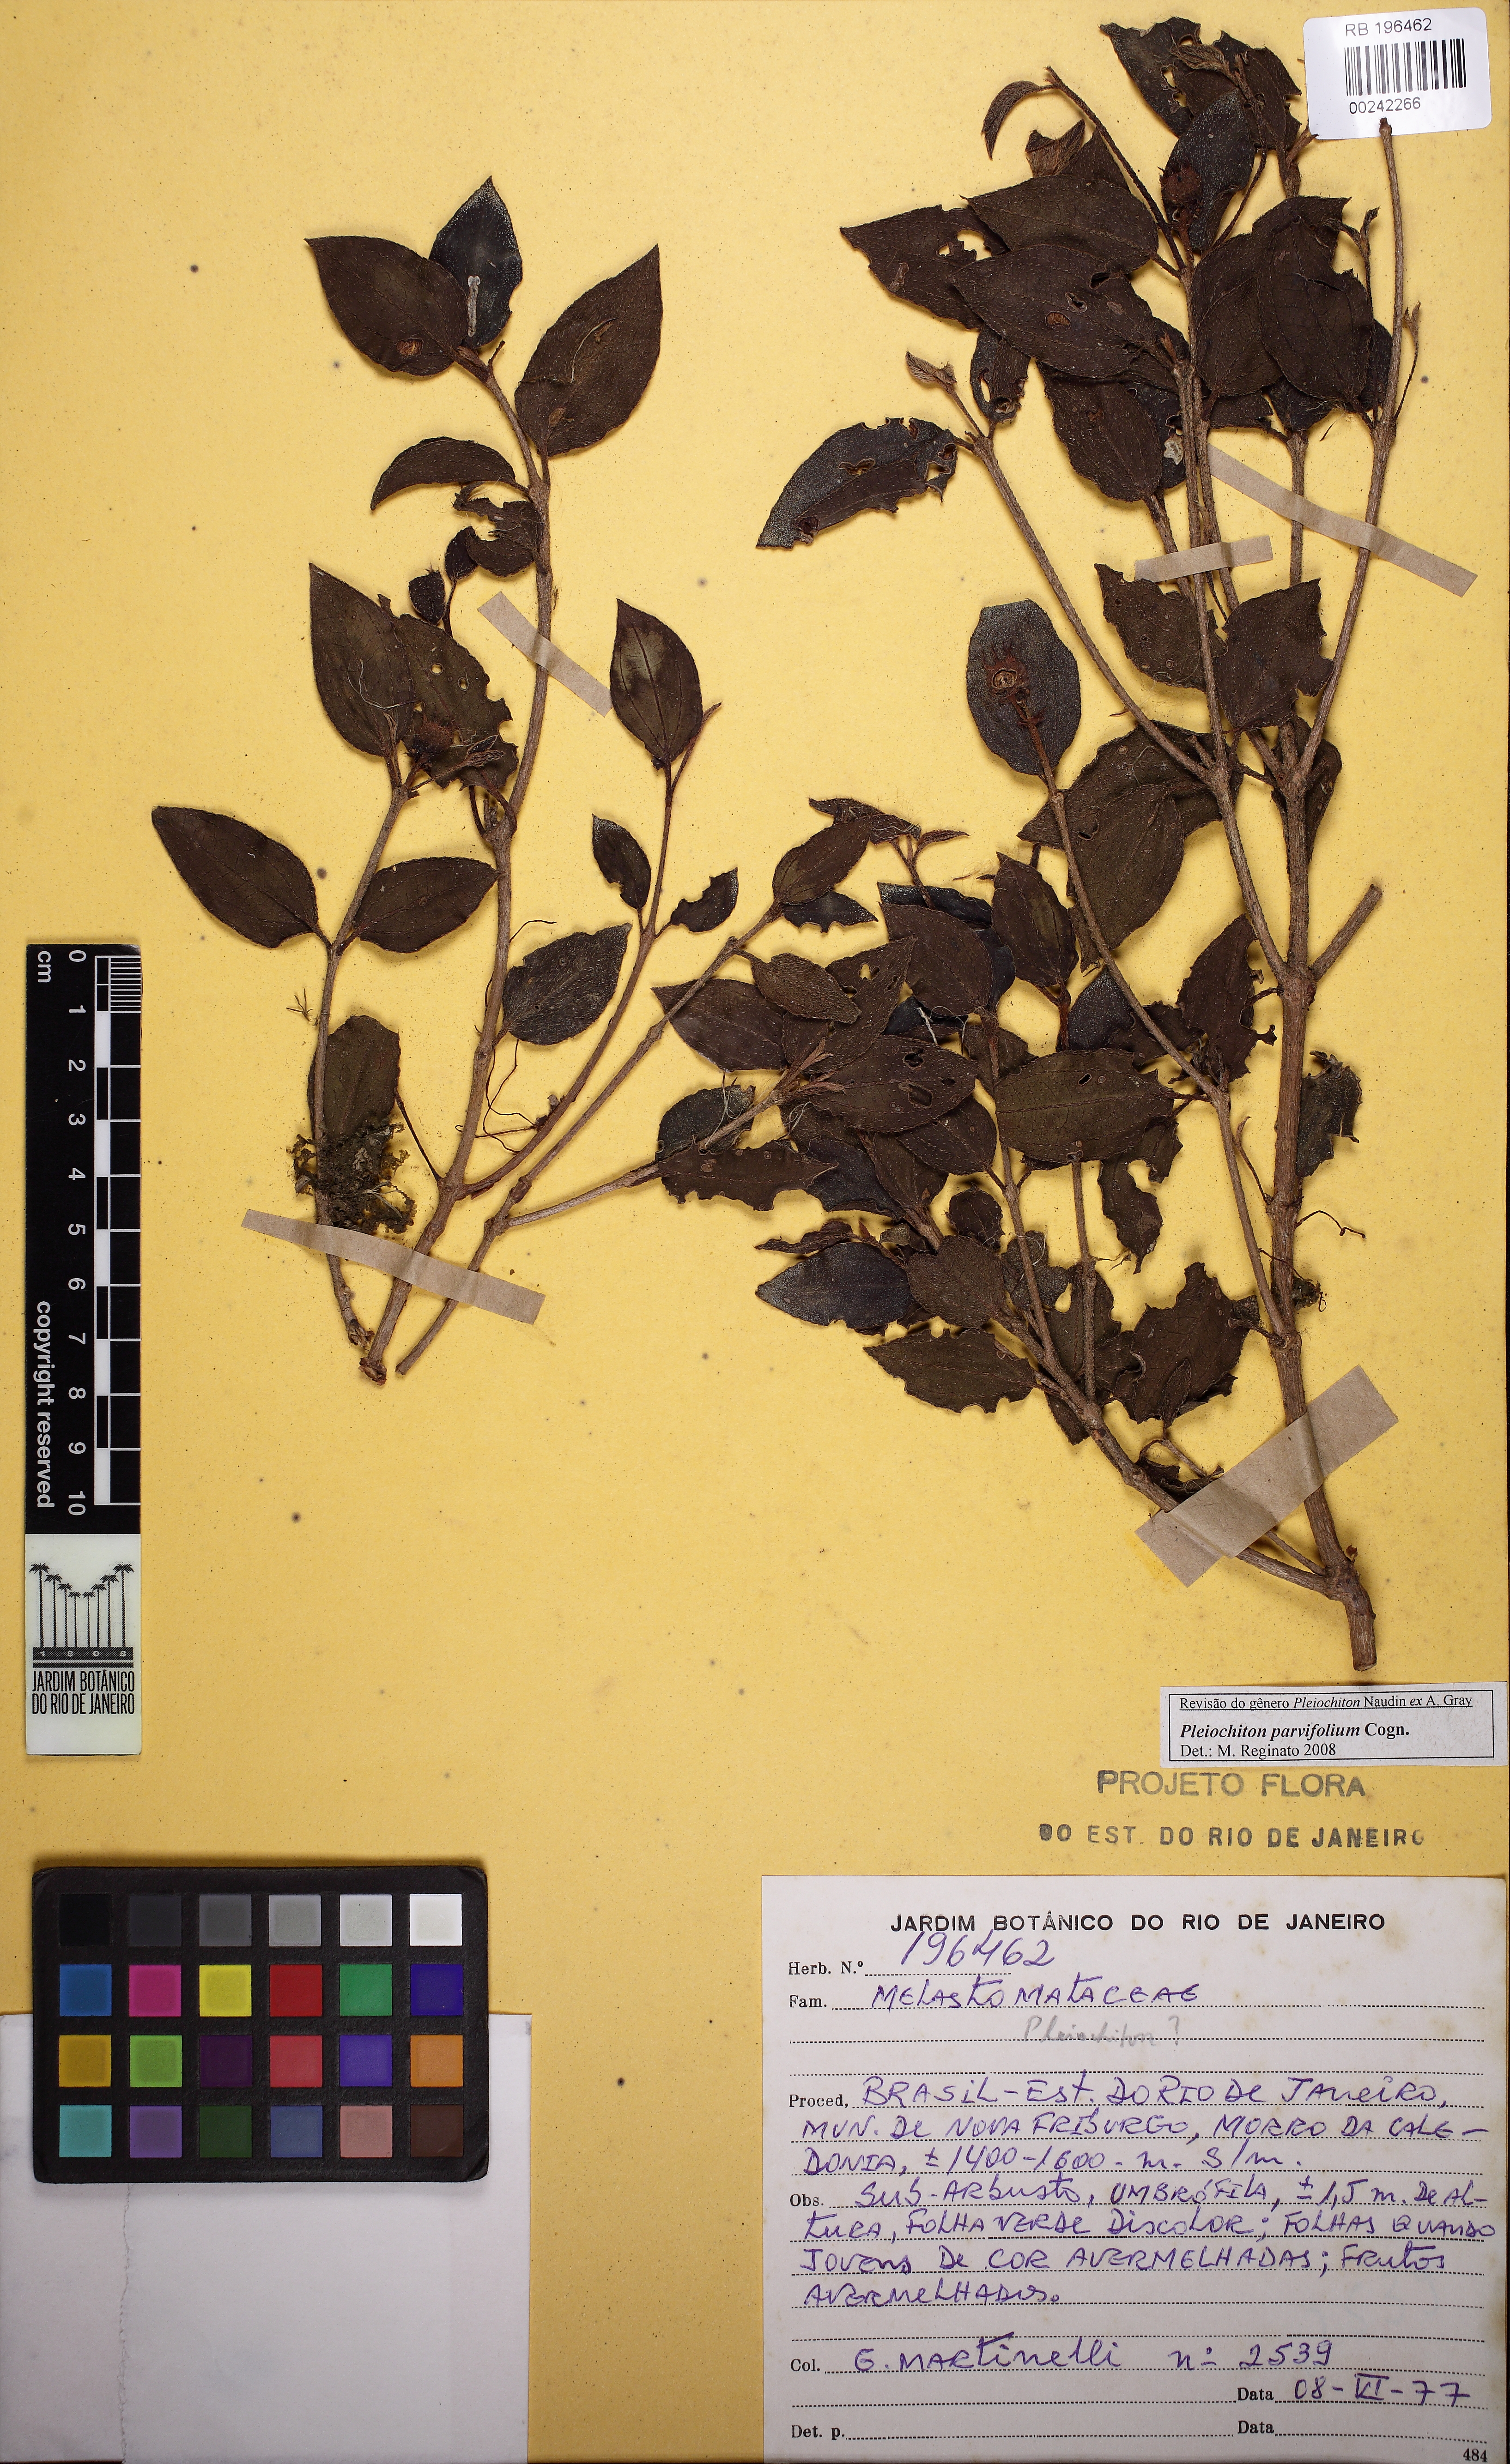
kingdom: Plantae
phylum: Tracheophyta
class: Magnoliopsida
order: Myrtales
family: Melastomataceae
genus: Miconia
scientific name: Miconia pleioparvifolia
